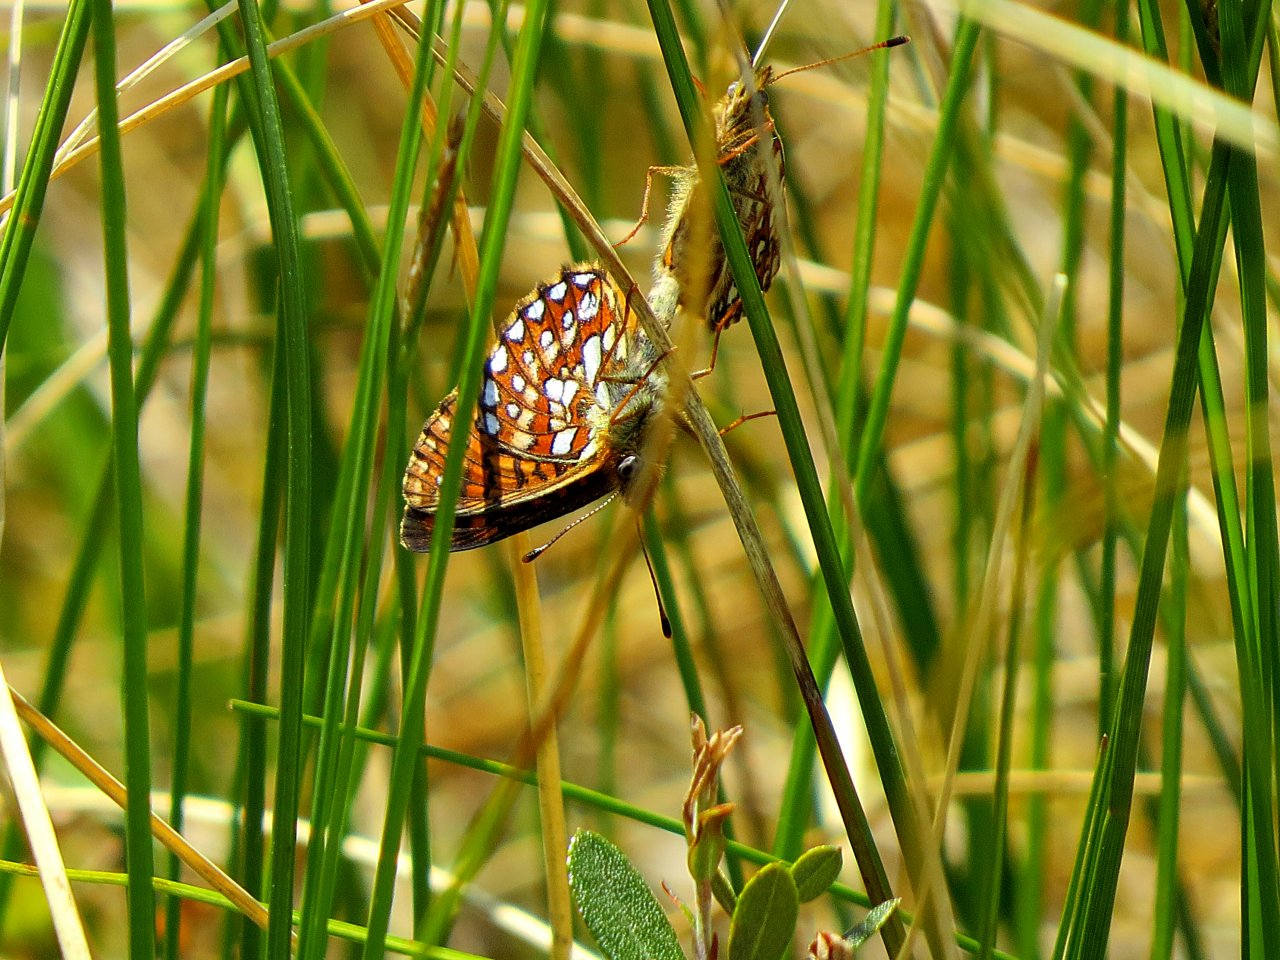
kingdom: Animalia
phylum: Arthropoda
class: Insecta
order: Lepidoptera
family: Nymphalidae
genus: Boloria
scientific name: Boloria eunomia
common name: Bog Fritillary
